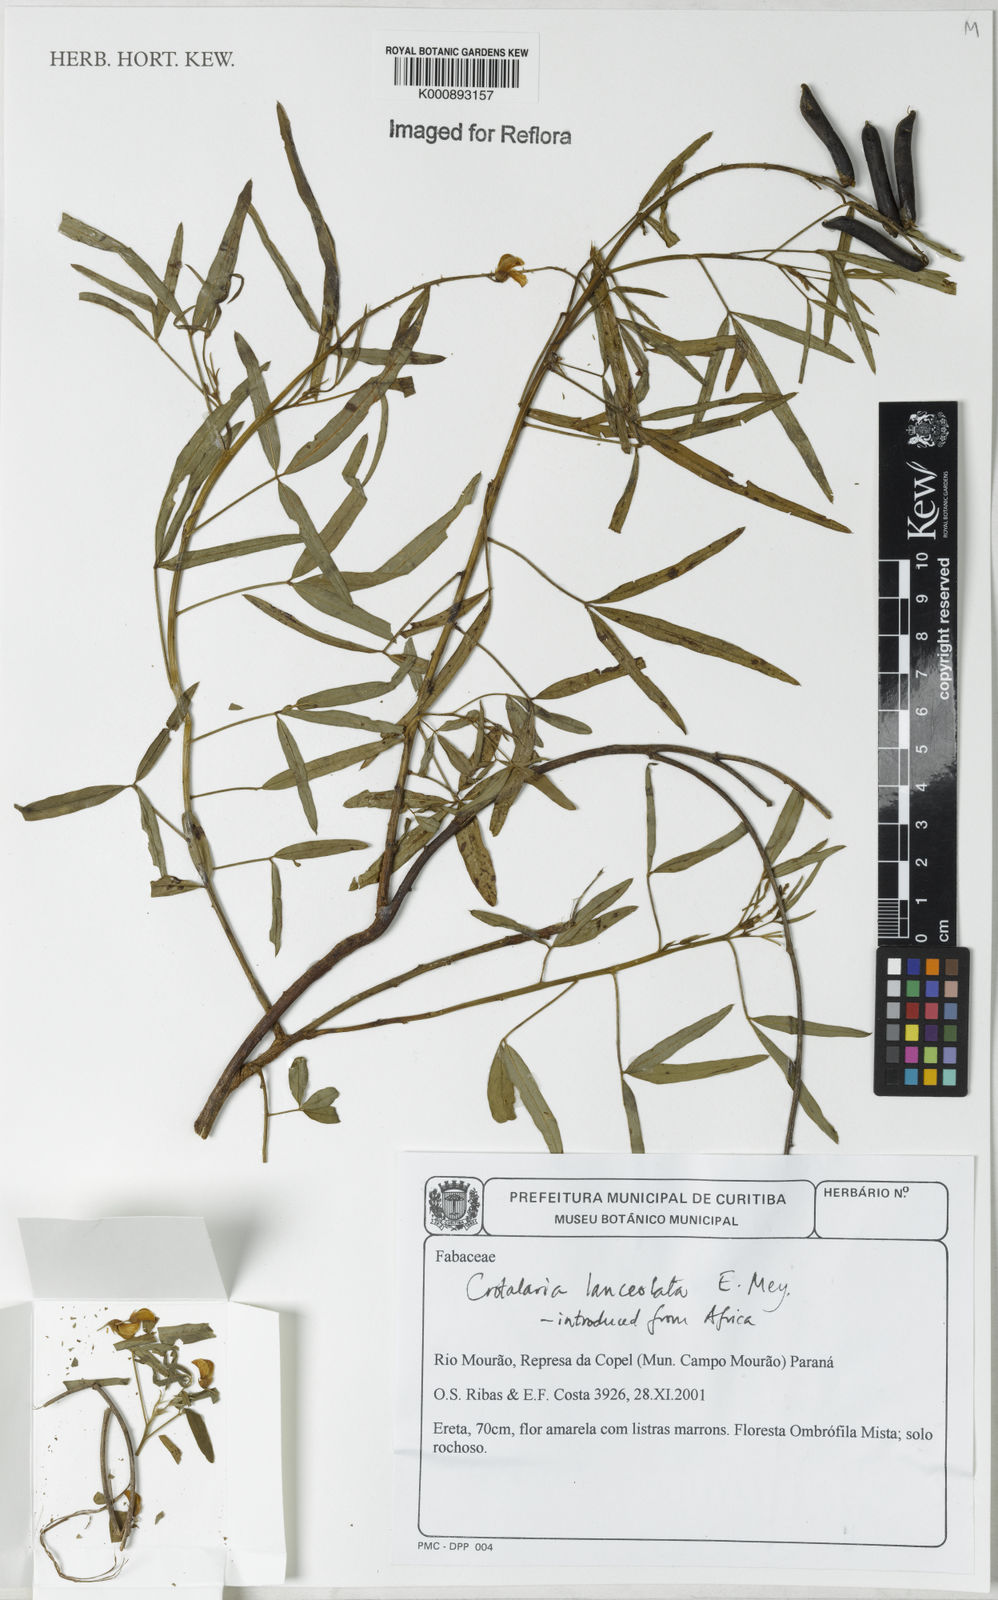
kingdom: Plantae
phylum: Tracheophyta
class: Magnoliopsida
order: Fabales
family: Fabaceae
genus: Crotalaria
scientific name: Crotalaria lanceolata
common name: Lanceleaf rattlebox
